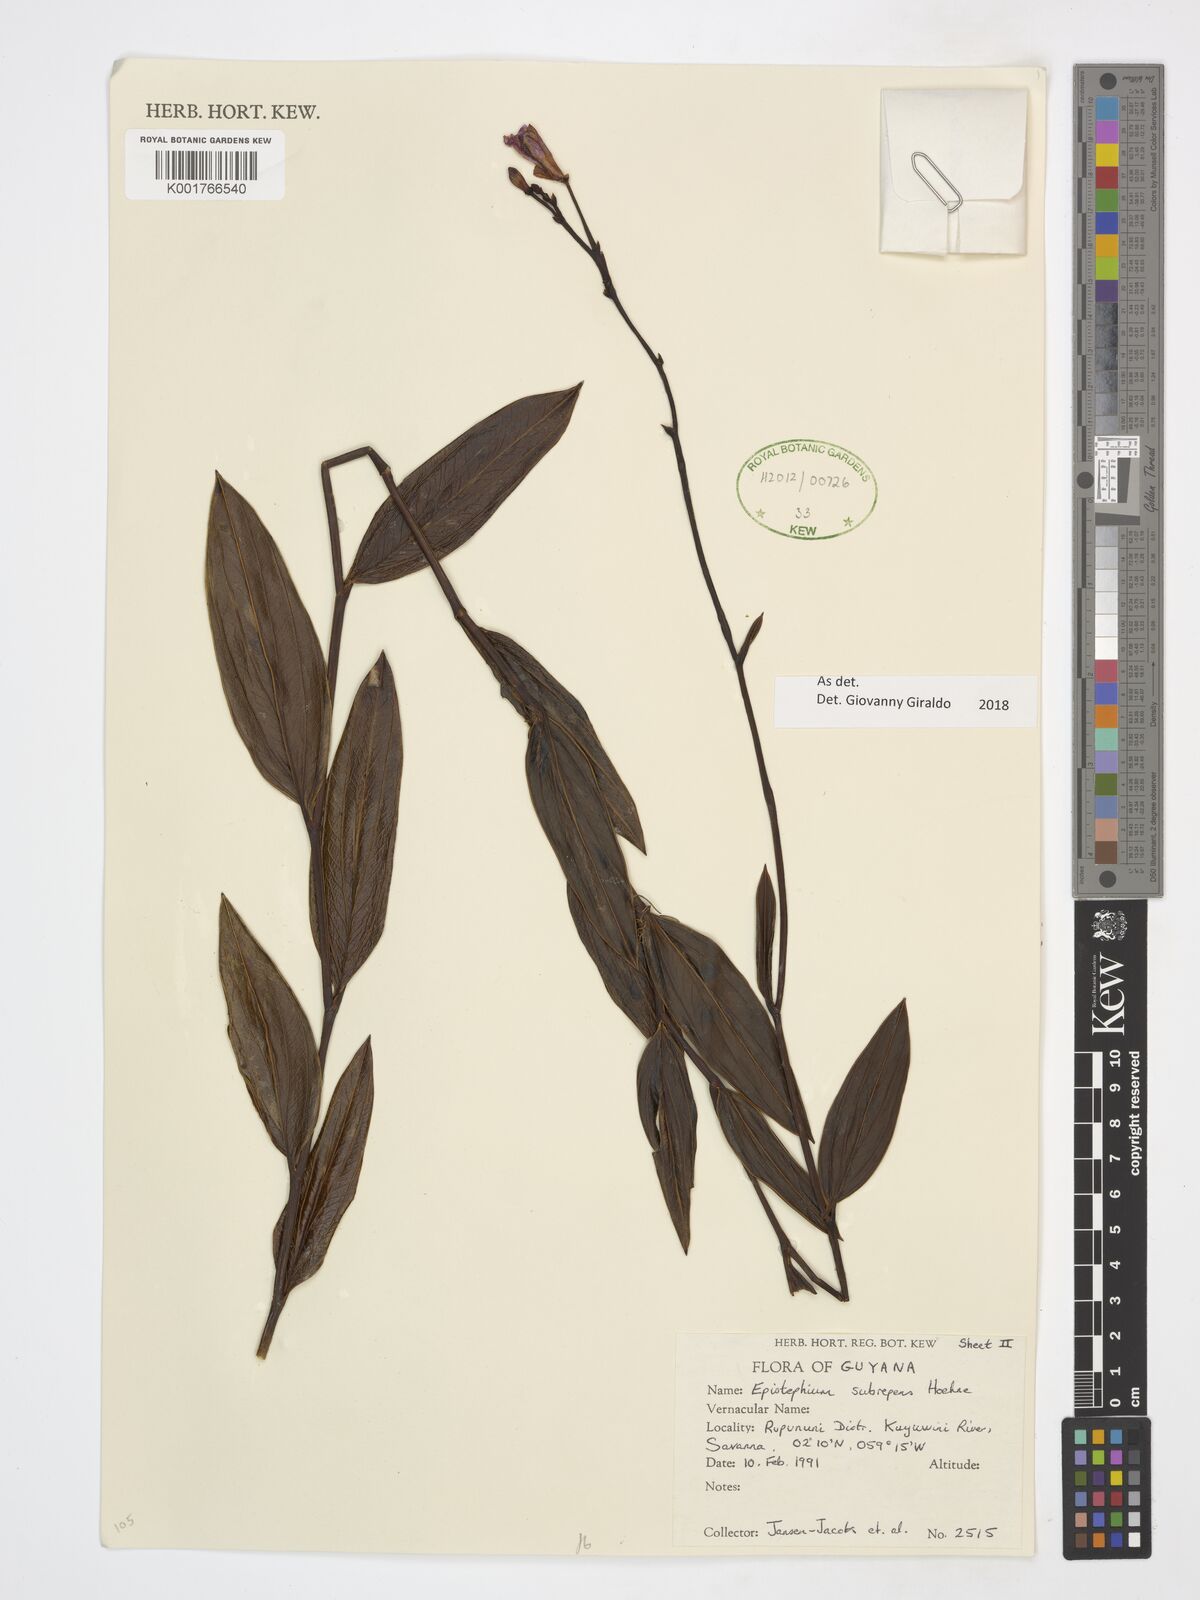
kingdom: Plantae
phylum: Tracheophyta
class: Liliopsida
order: Asparagales
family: Orchidaceae
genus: Epistephium
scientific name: Epistephium subrepens
